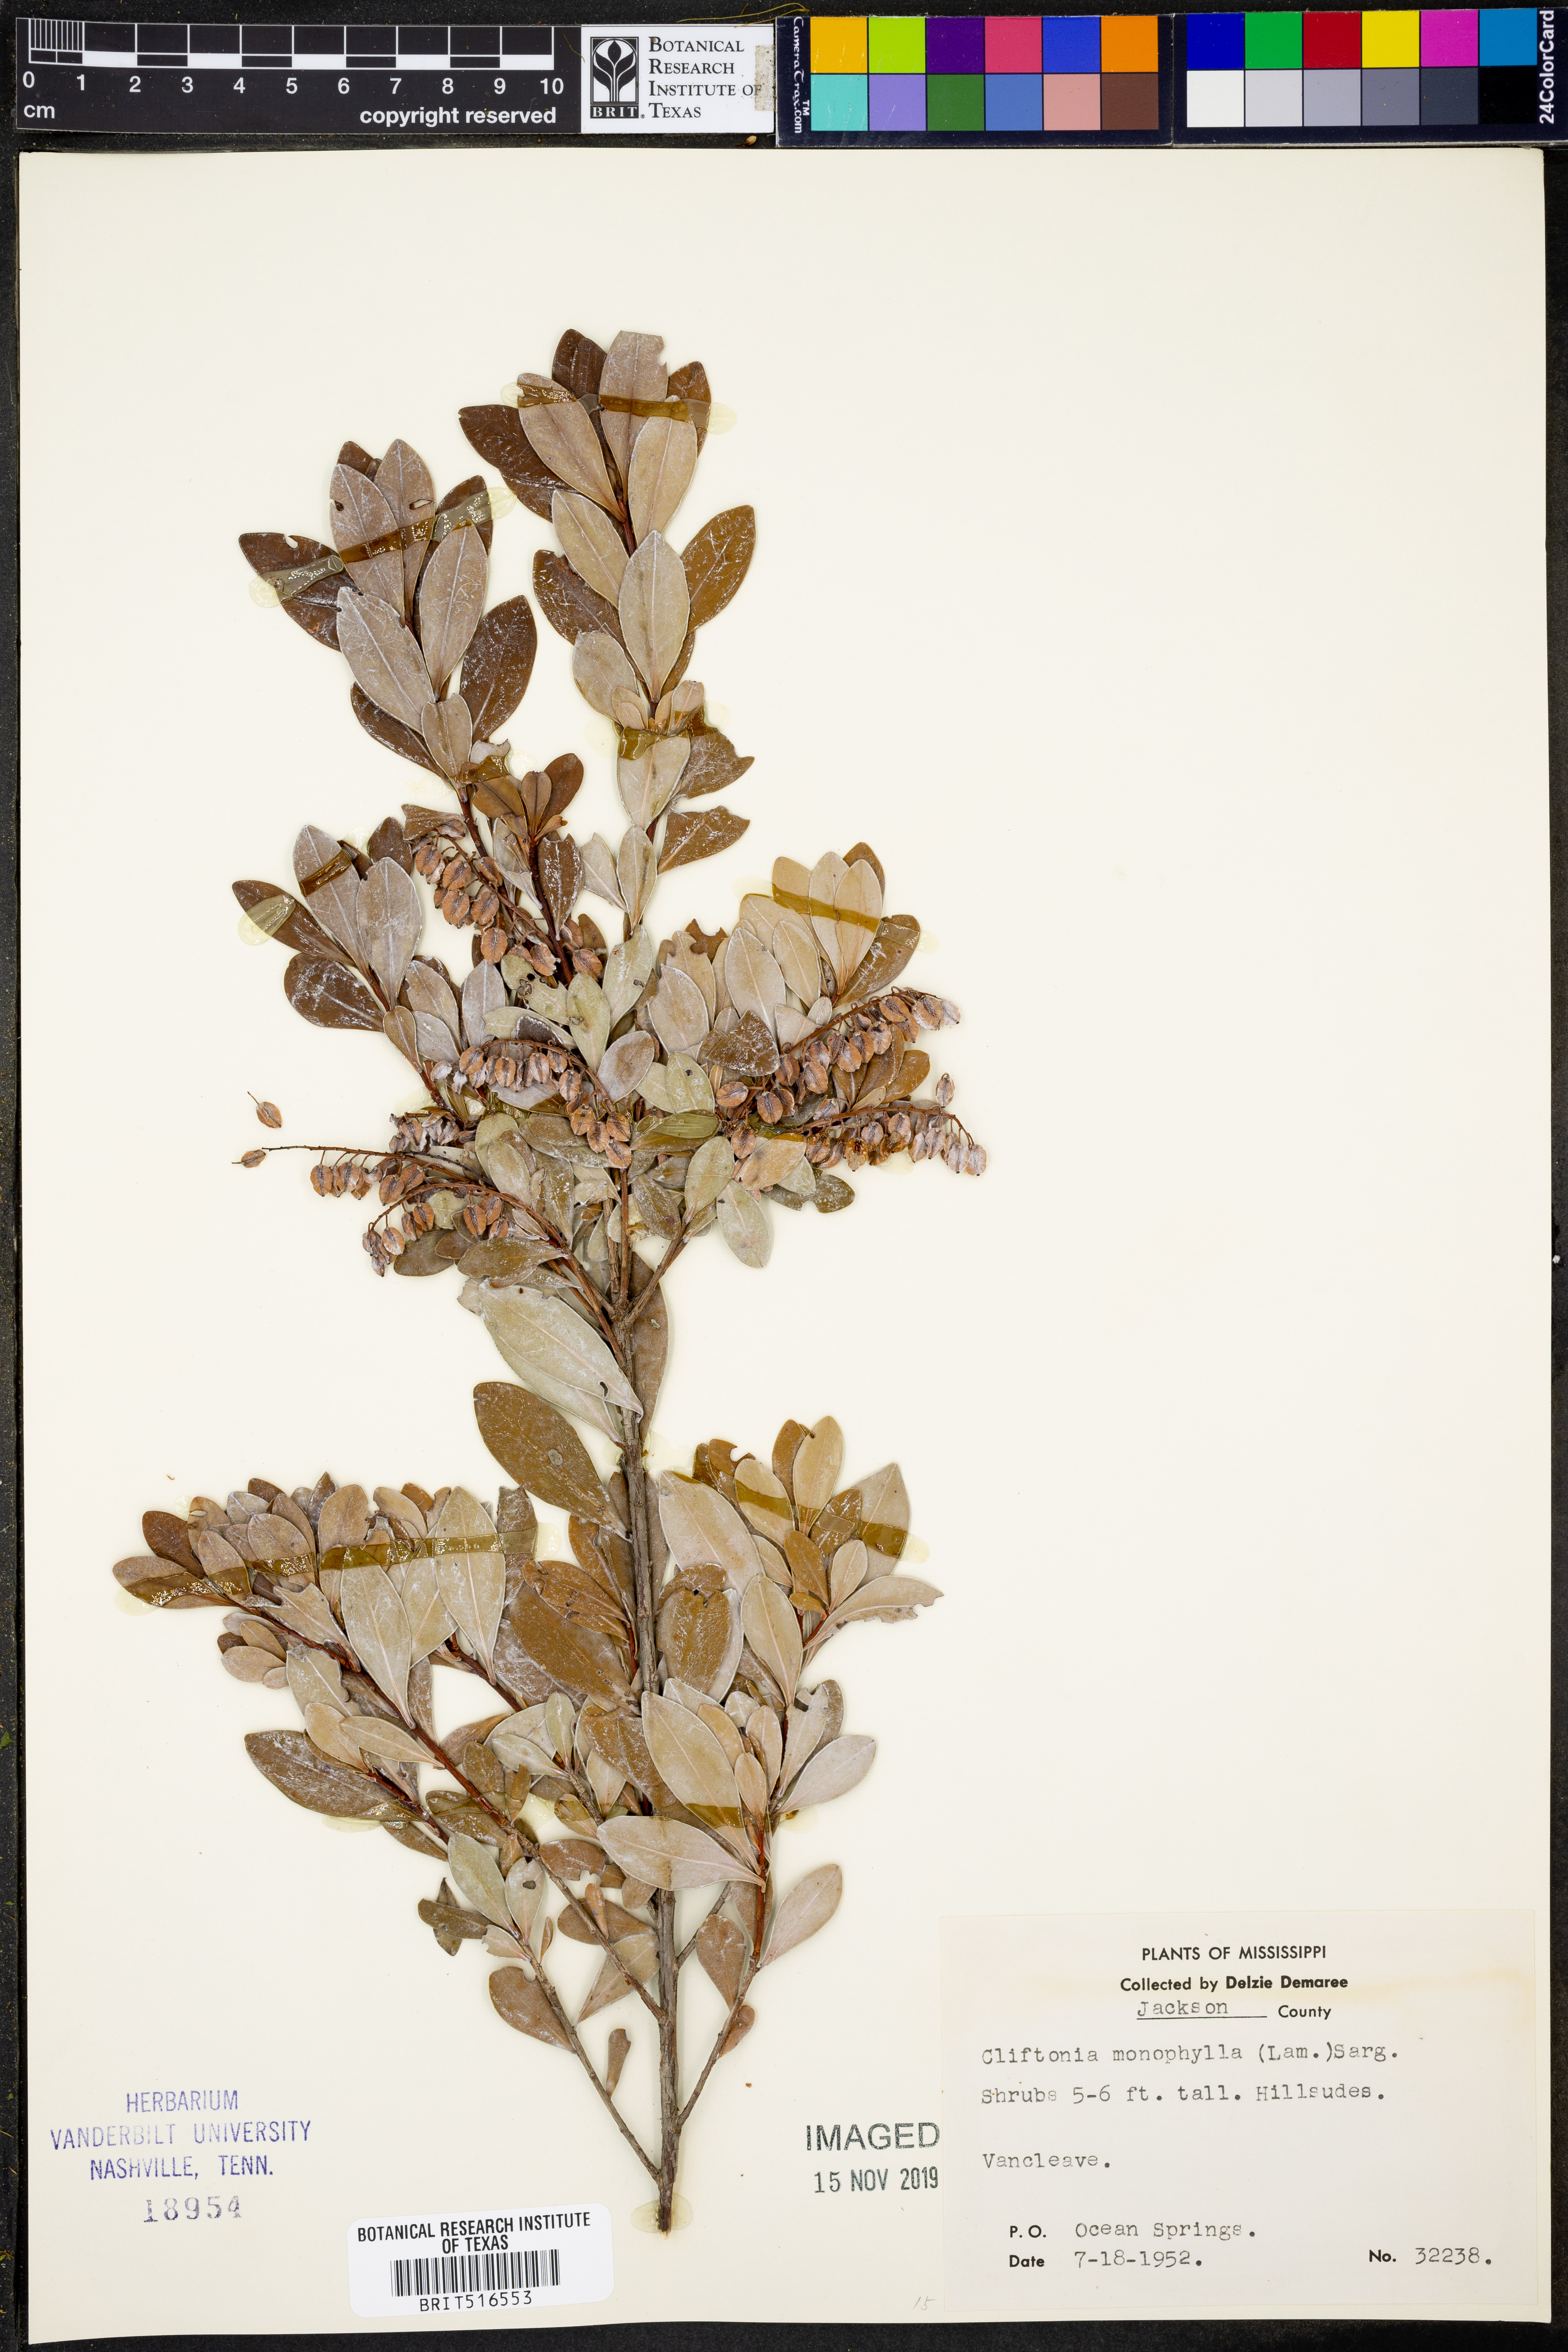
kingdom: Plantae
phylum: Tracheophyta
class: Magnoliopsida
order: Ericales
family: Cyrillaceae
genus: Cliftonia
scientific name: Cliftonia monophylla
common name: Titi
